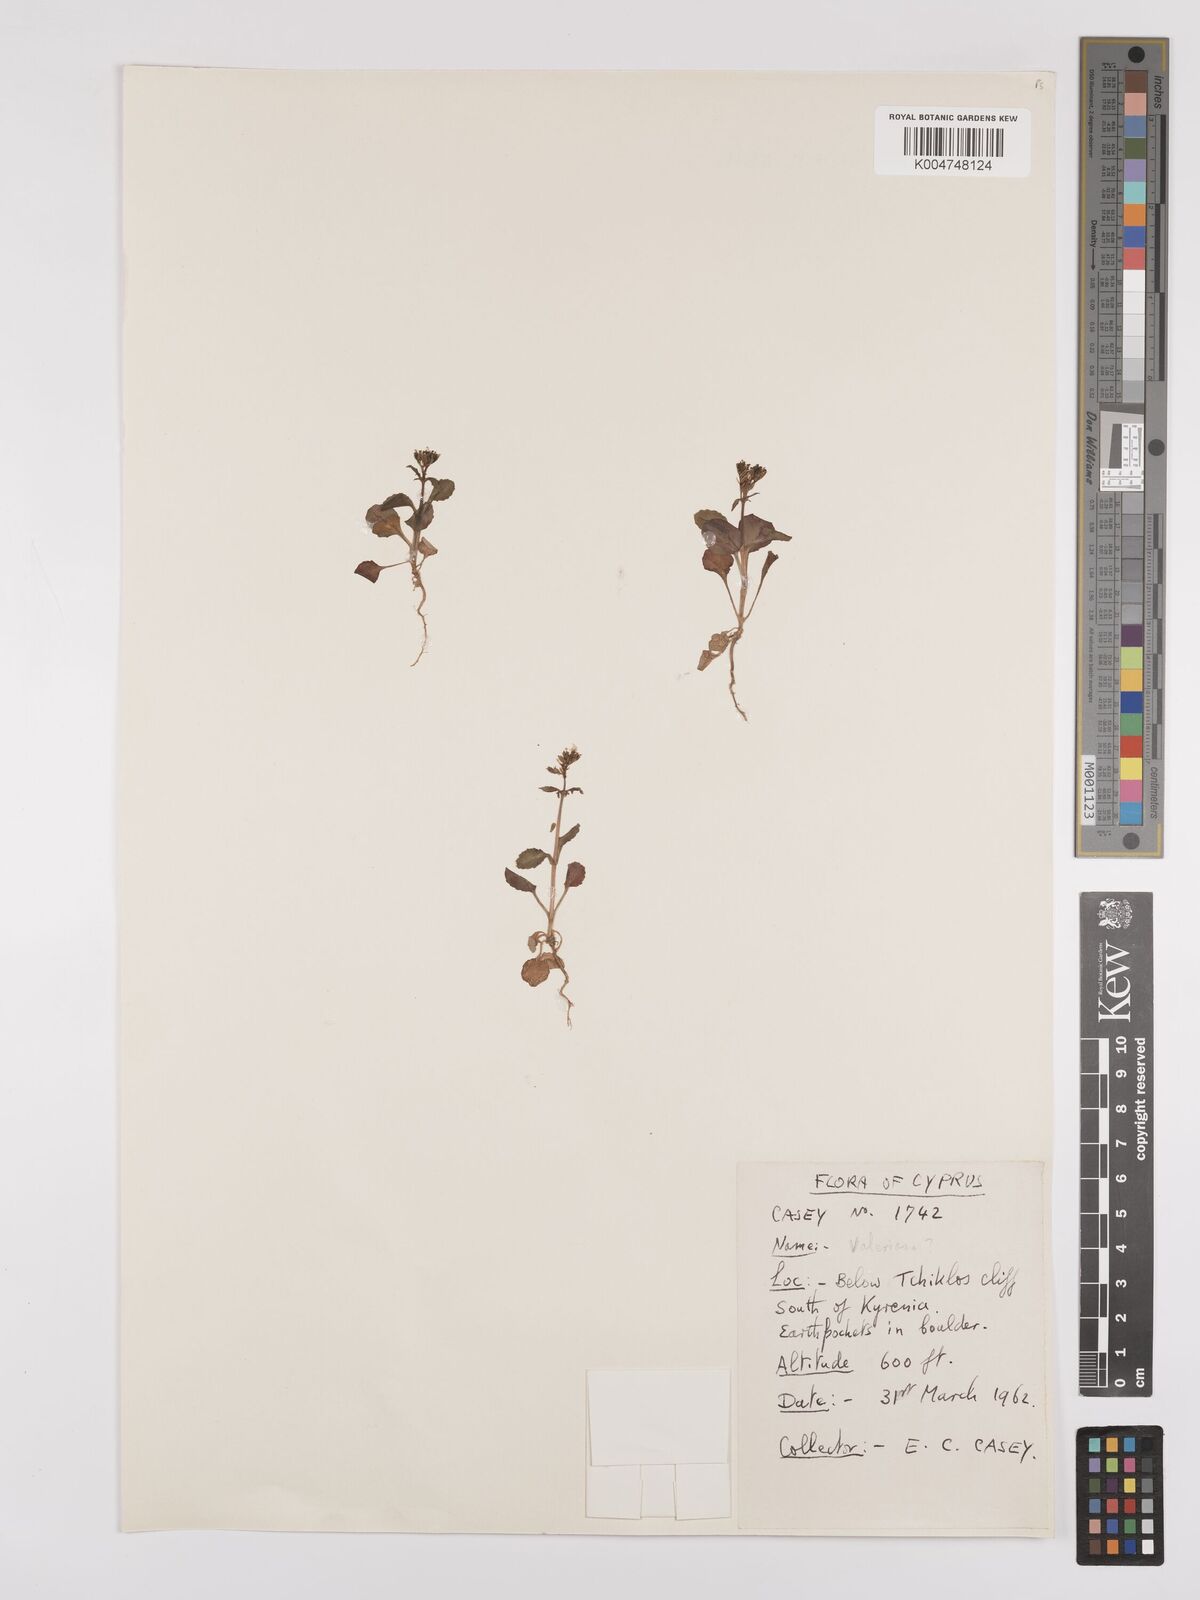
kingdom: Plantae
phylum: Tracheophyta
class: Magnoliopsida
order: Dipsacales
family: Caprifoliaceae
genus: Valeriana
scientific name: Valeriana
